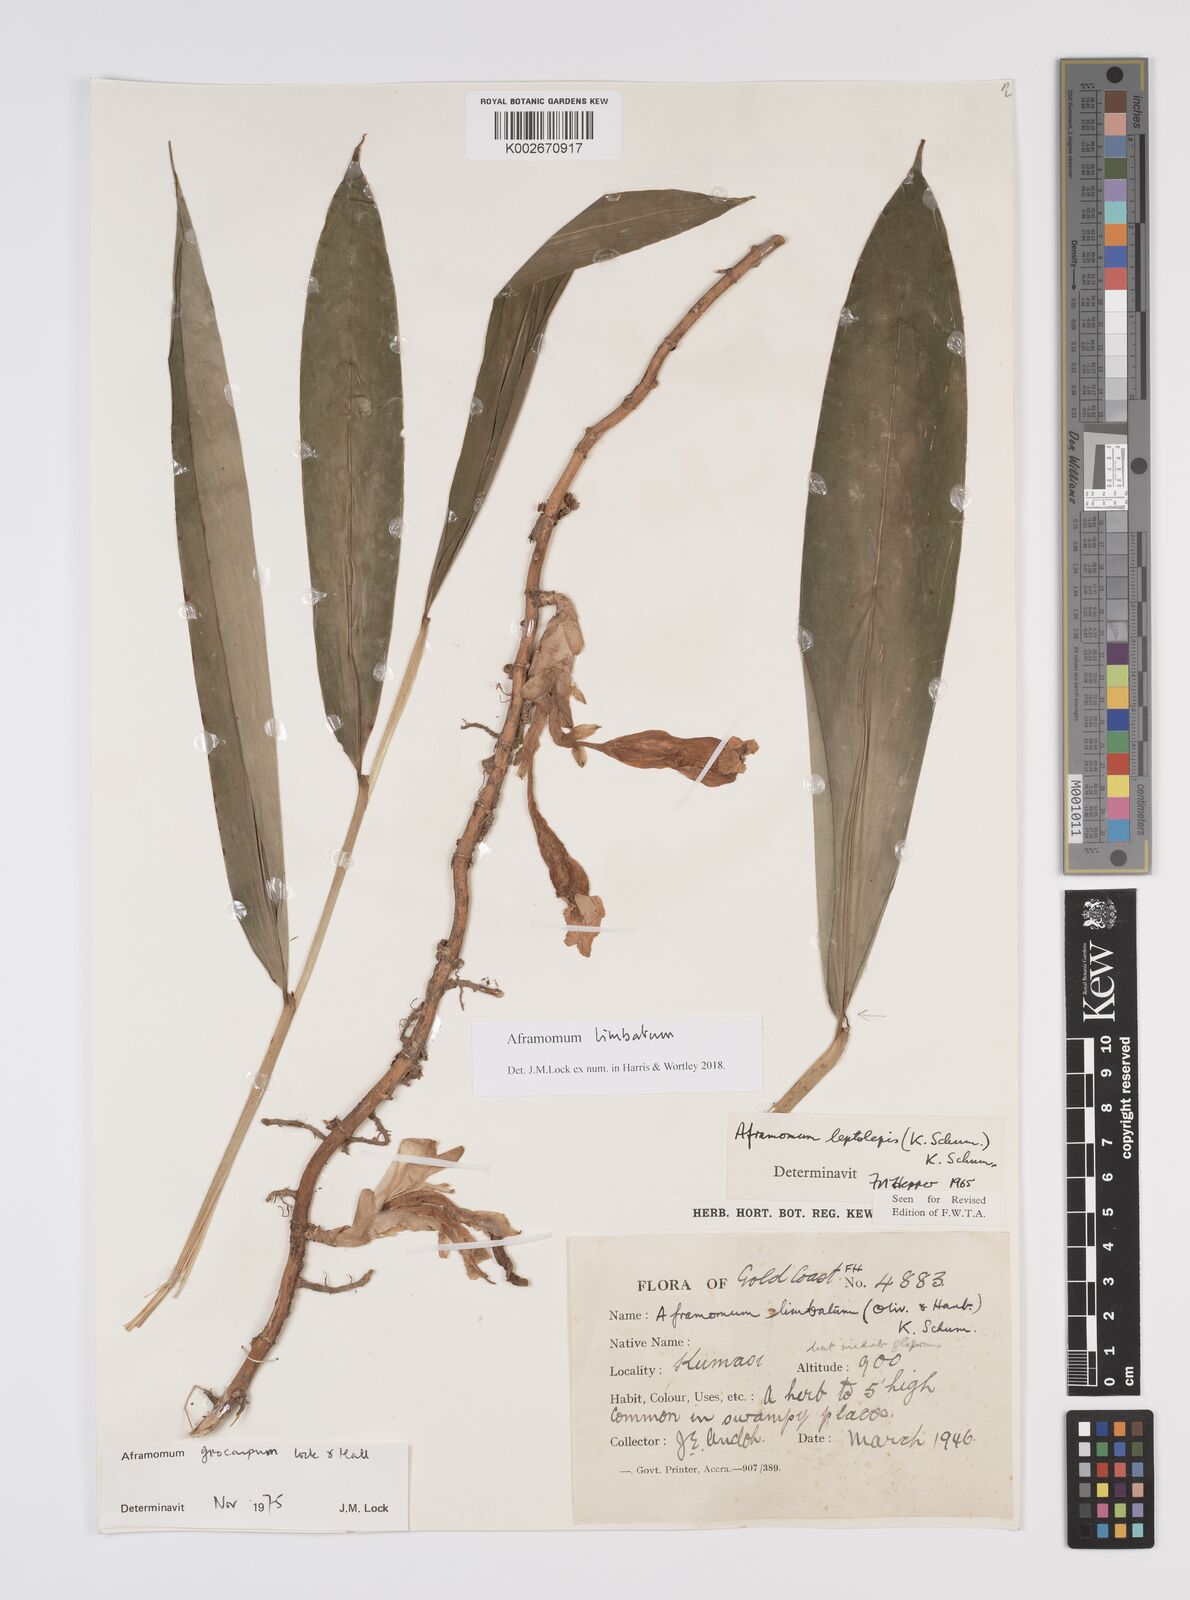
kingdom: Plantae
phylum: Tracheophyta
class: Liliopsida
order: Zingiberales
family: Zingiberaceae
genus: Aframomum
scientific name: Aframomum limbatum
